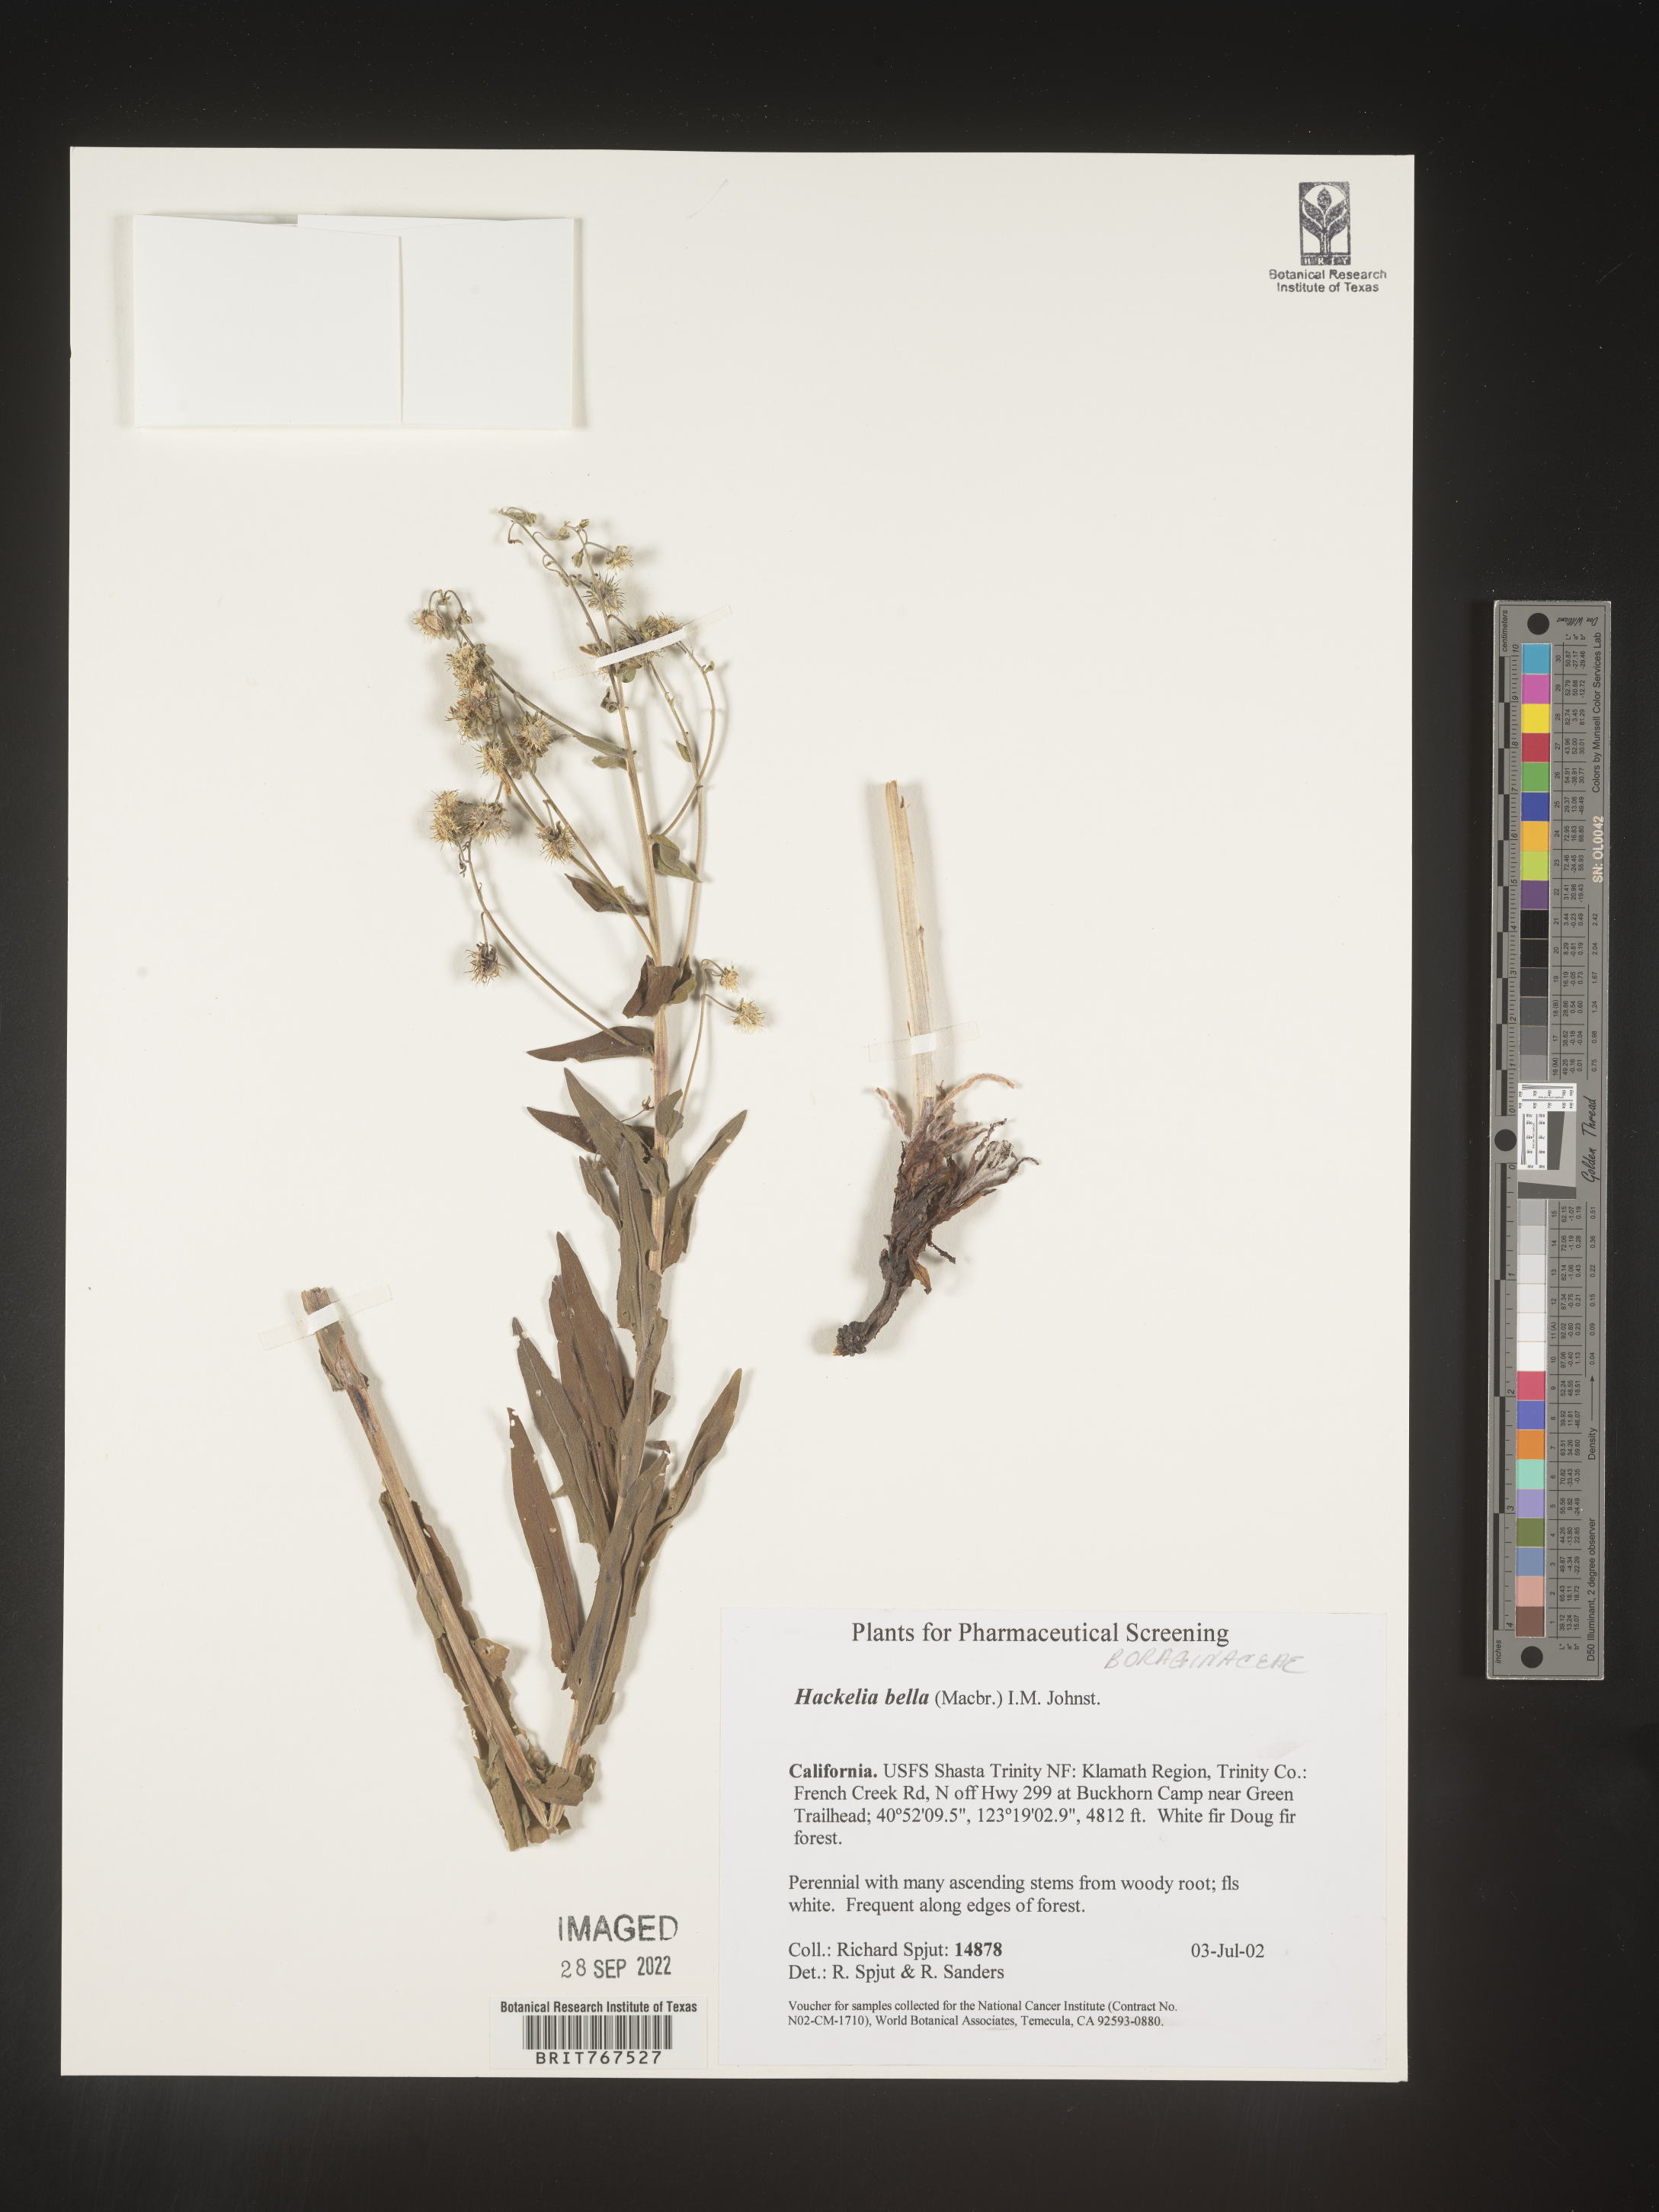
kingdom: Plantae
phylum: Tracheophyta
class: Magnoliopsida
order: Boraginales
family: Boraginaceae
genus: Hackelia
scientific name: Hackelia
